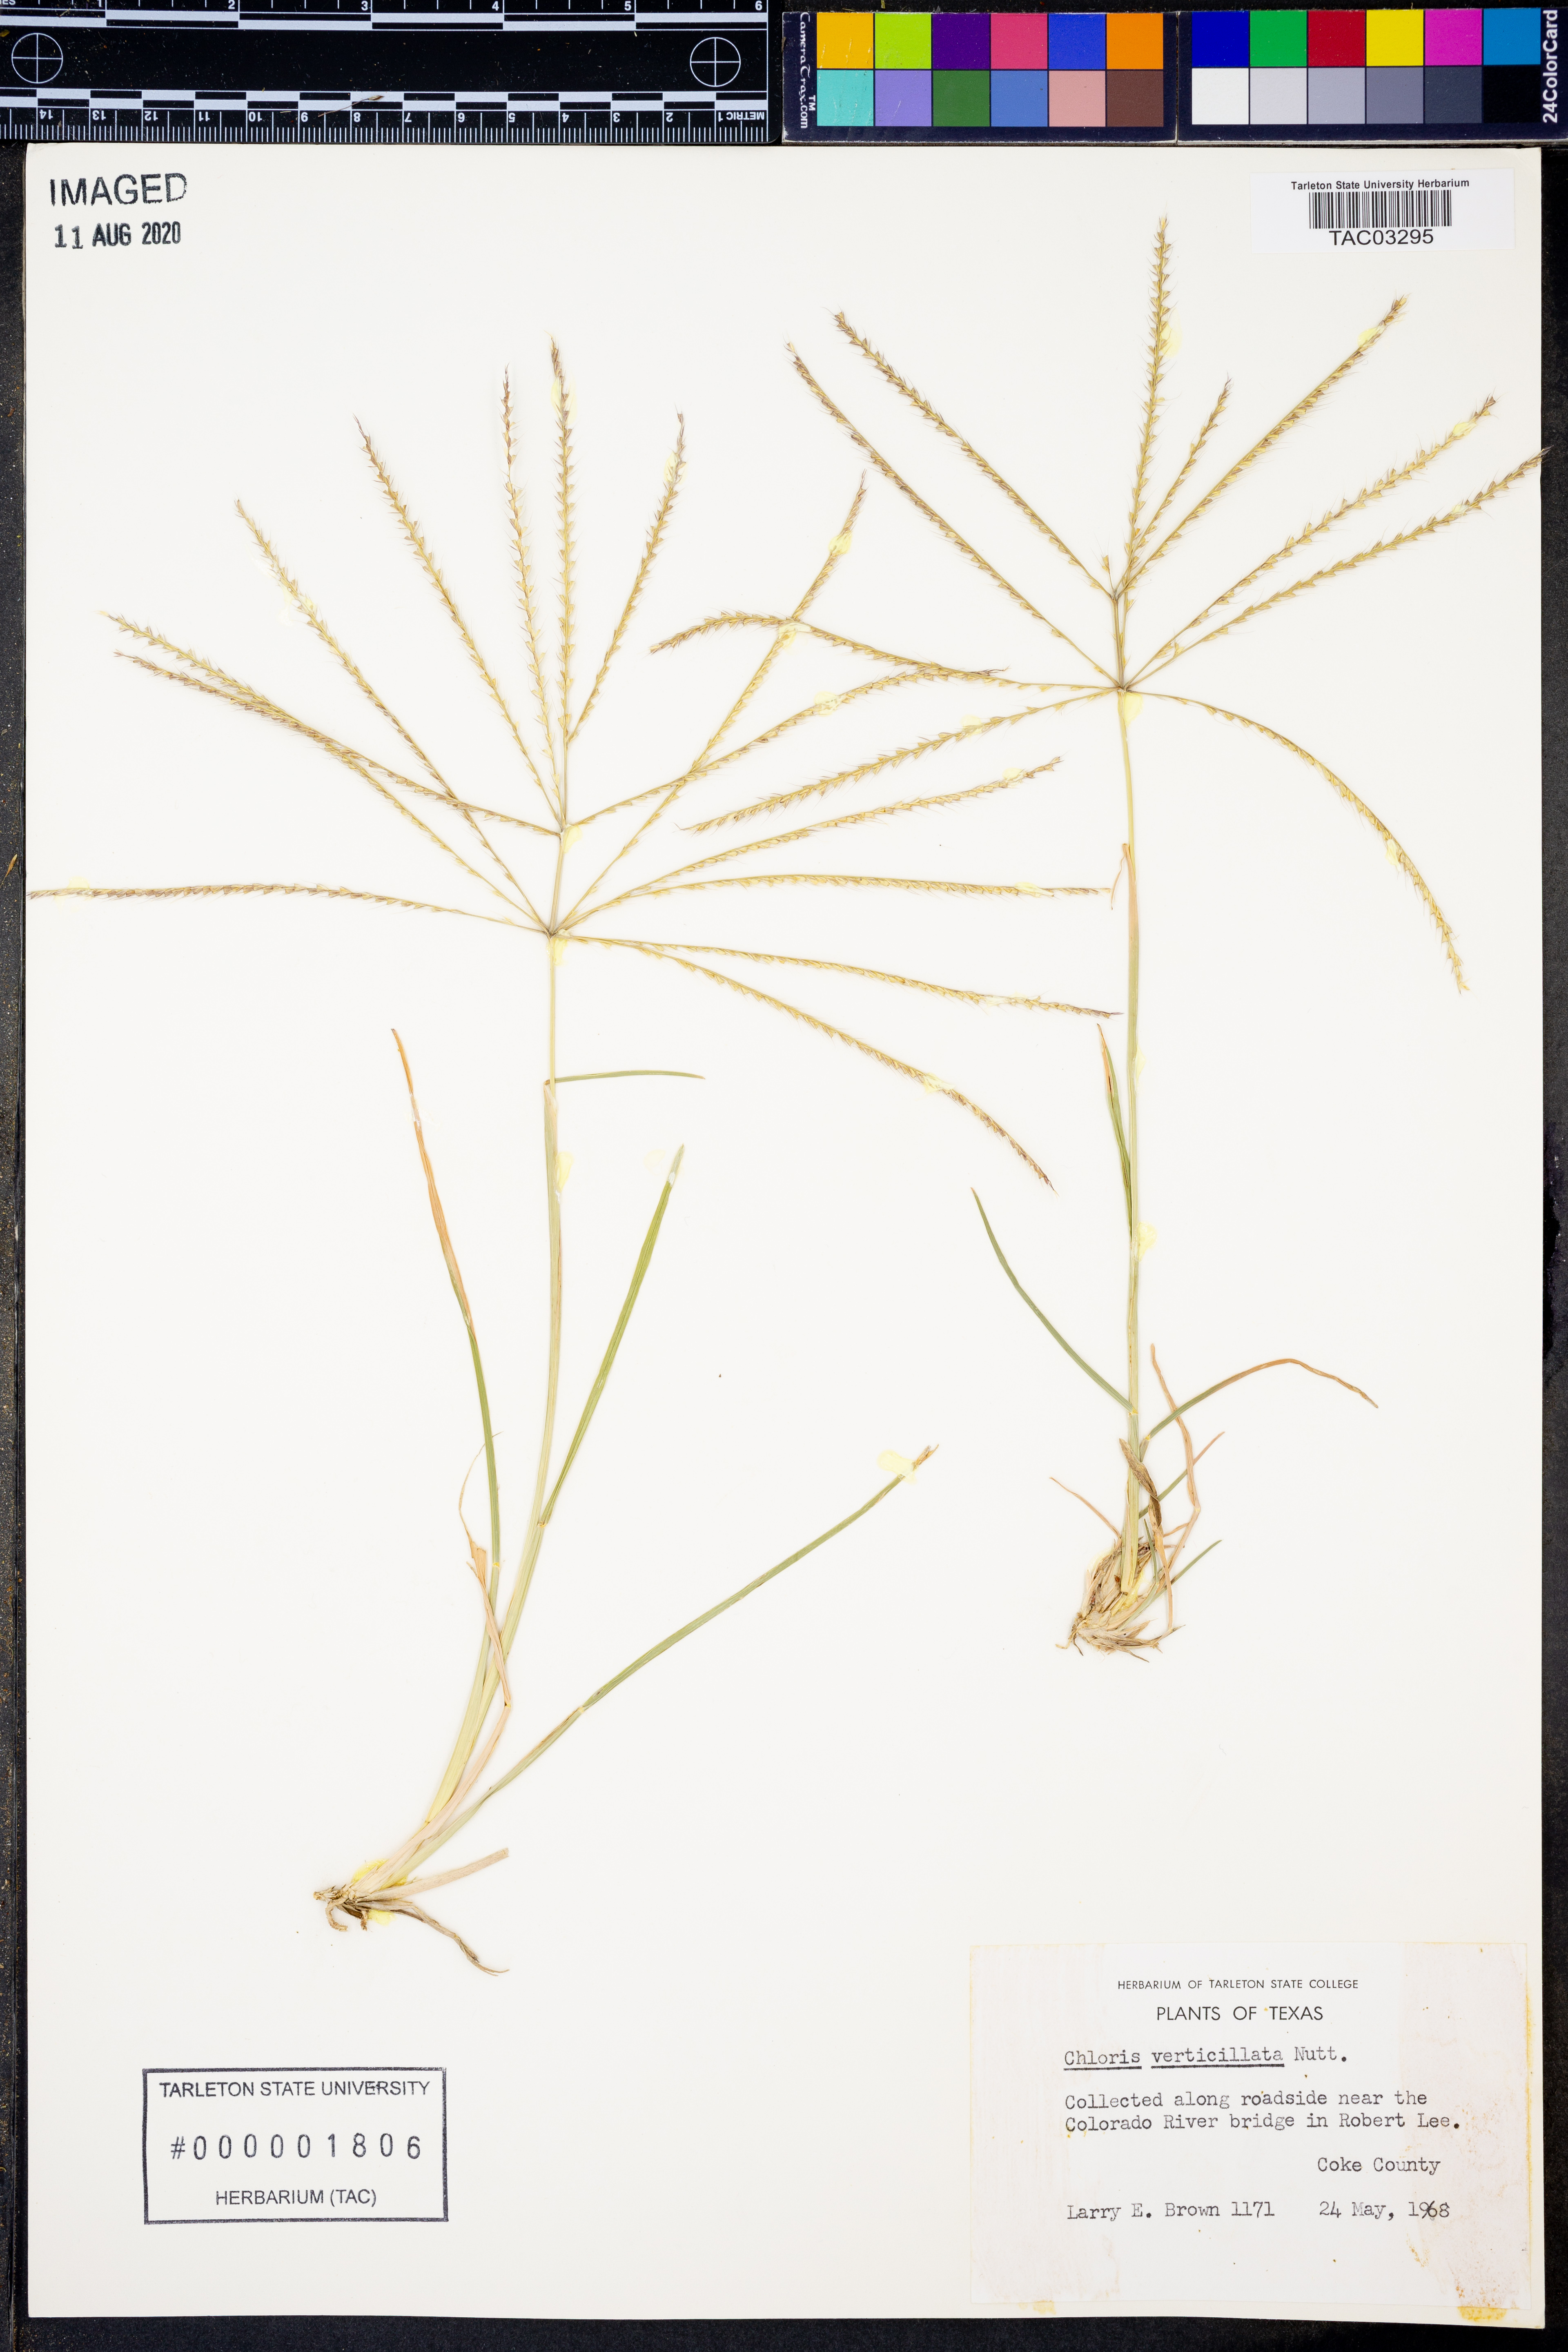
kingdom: Plantae
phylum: Tracheophyta
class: Liliopsida
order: Poales
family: Poaceae
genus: Chloris
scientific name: Chloris verticillata
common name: Tumble windmill grass
